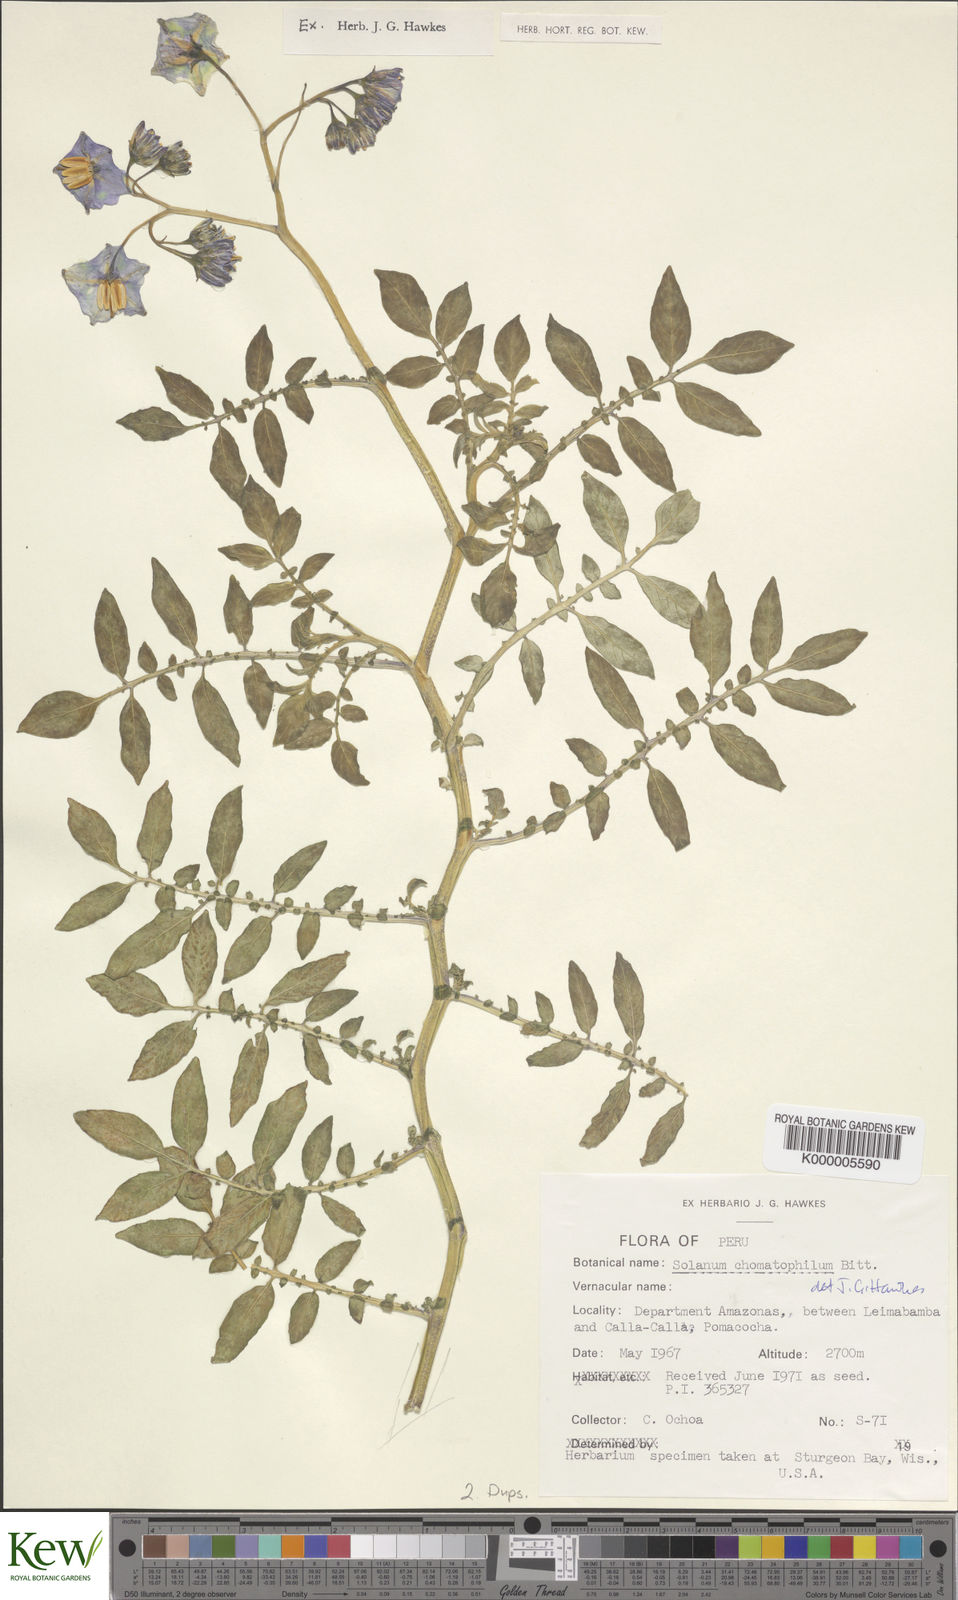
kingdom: Plantae
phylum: Tracheophyta
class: Magnoliopsida
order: Solanales
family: Solanaceae
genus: Solanum
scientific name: Solanum chomatophilum
